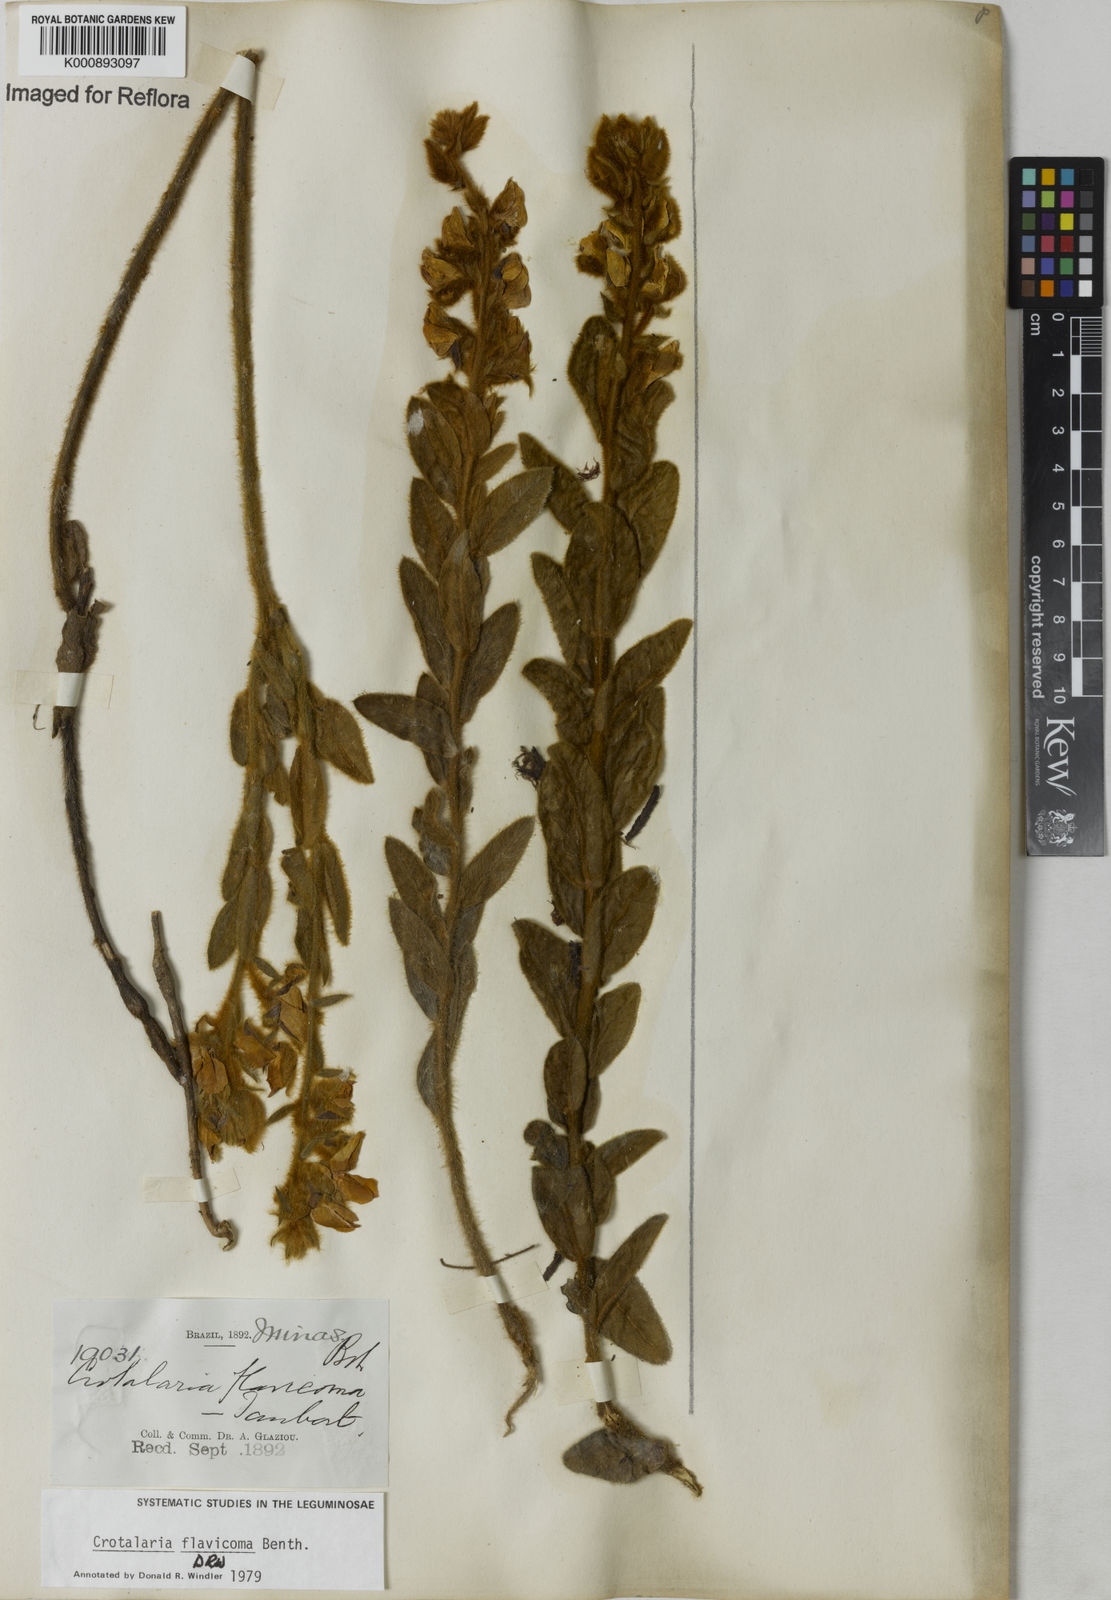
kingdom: Plantae
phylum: Tracheophyta
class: Magnoliopsida
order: Fabales
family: Fabaceae
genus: Crotalaria
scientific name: Crotalaria flavicoma
